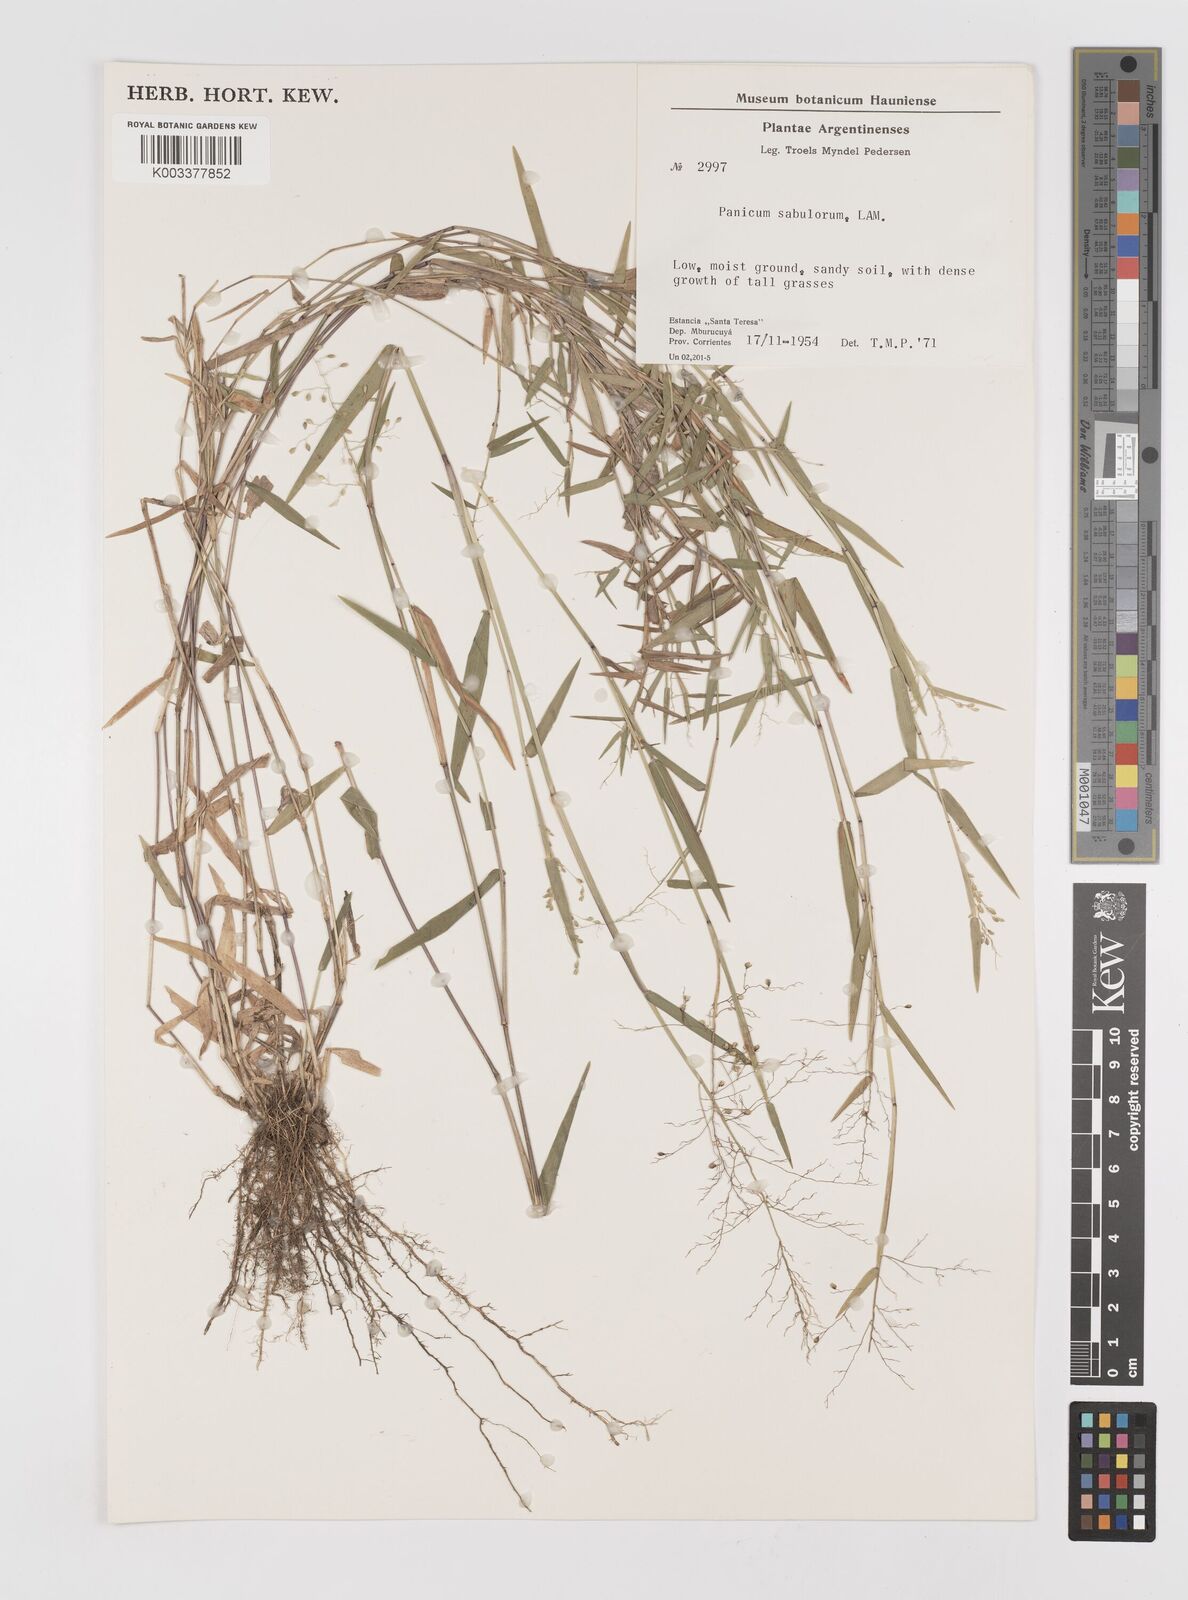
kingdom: Plantae
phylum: Tracheophyta
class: Liliopsida
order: Poales
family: Poaceae
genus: Dichanthelium
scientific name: Dichanthelium stigmosum
